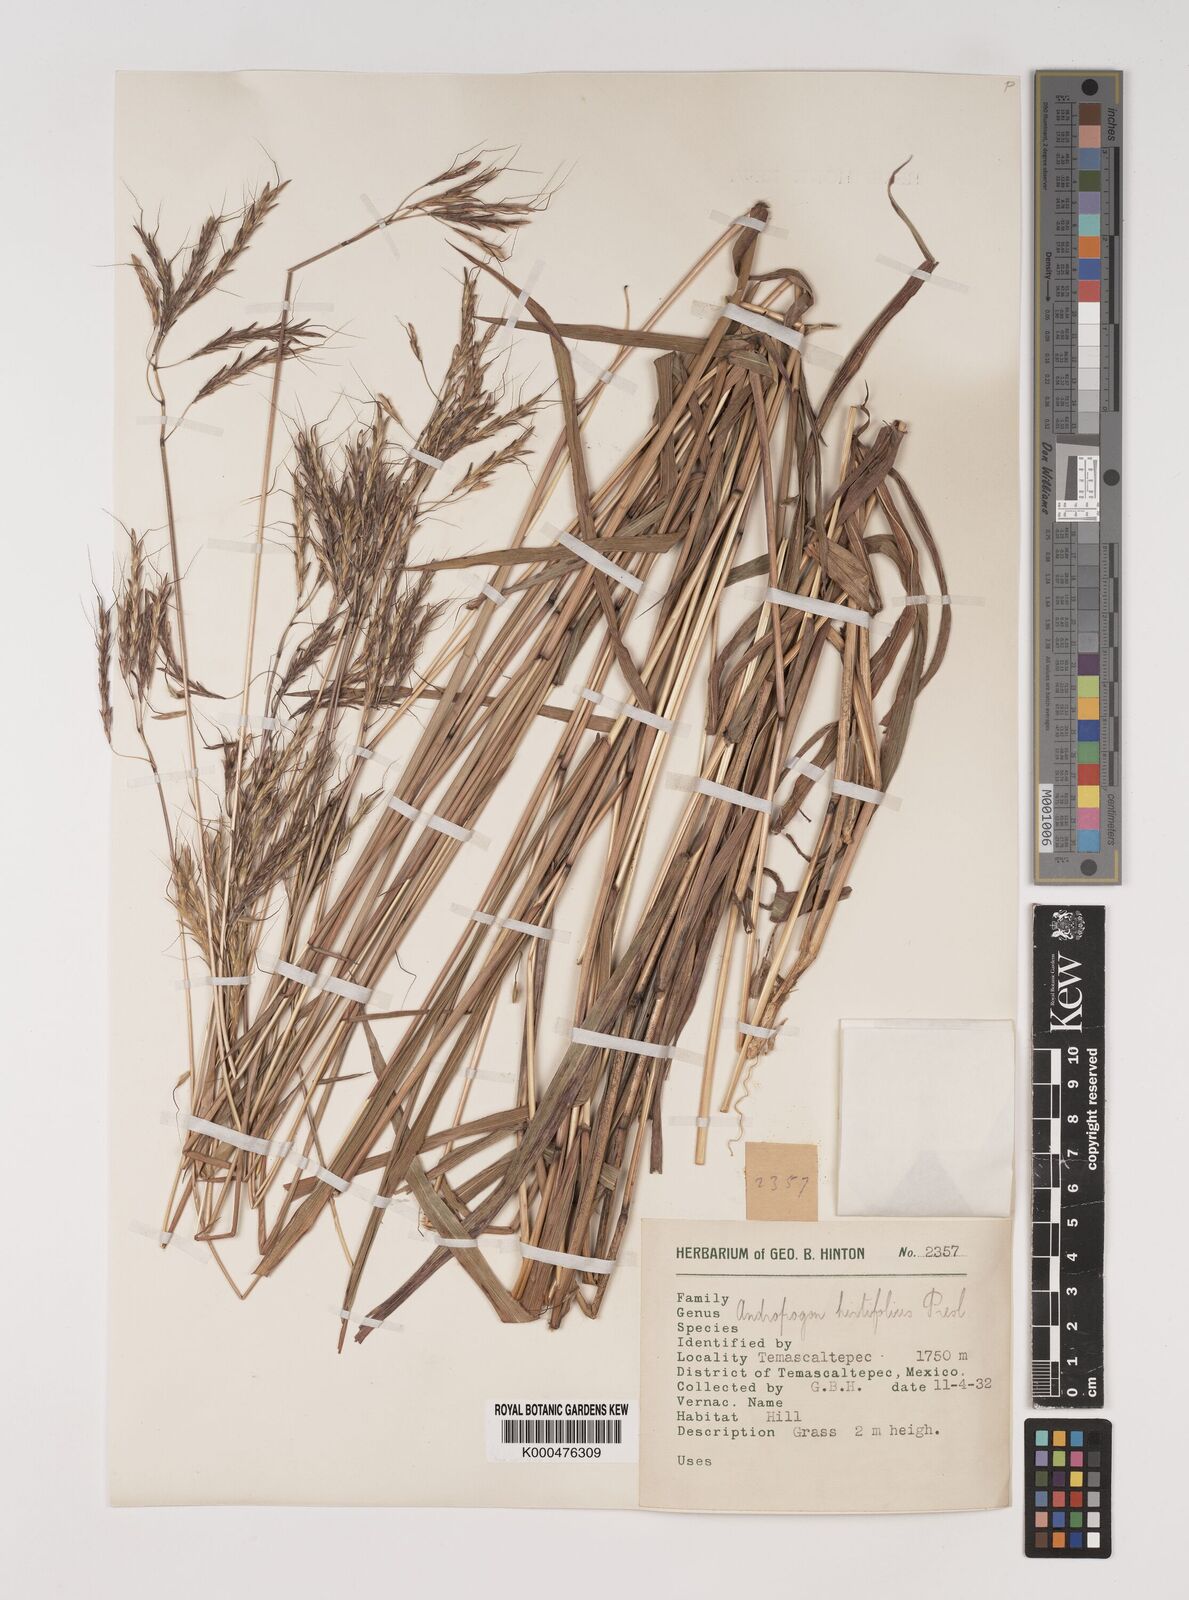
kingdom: Plantae
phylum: Tracheophyta
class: Liliopsida
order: Poales
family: Poaceae
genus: Bothriochloa
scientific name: Bothriochloa hirtifolia
